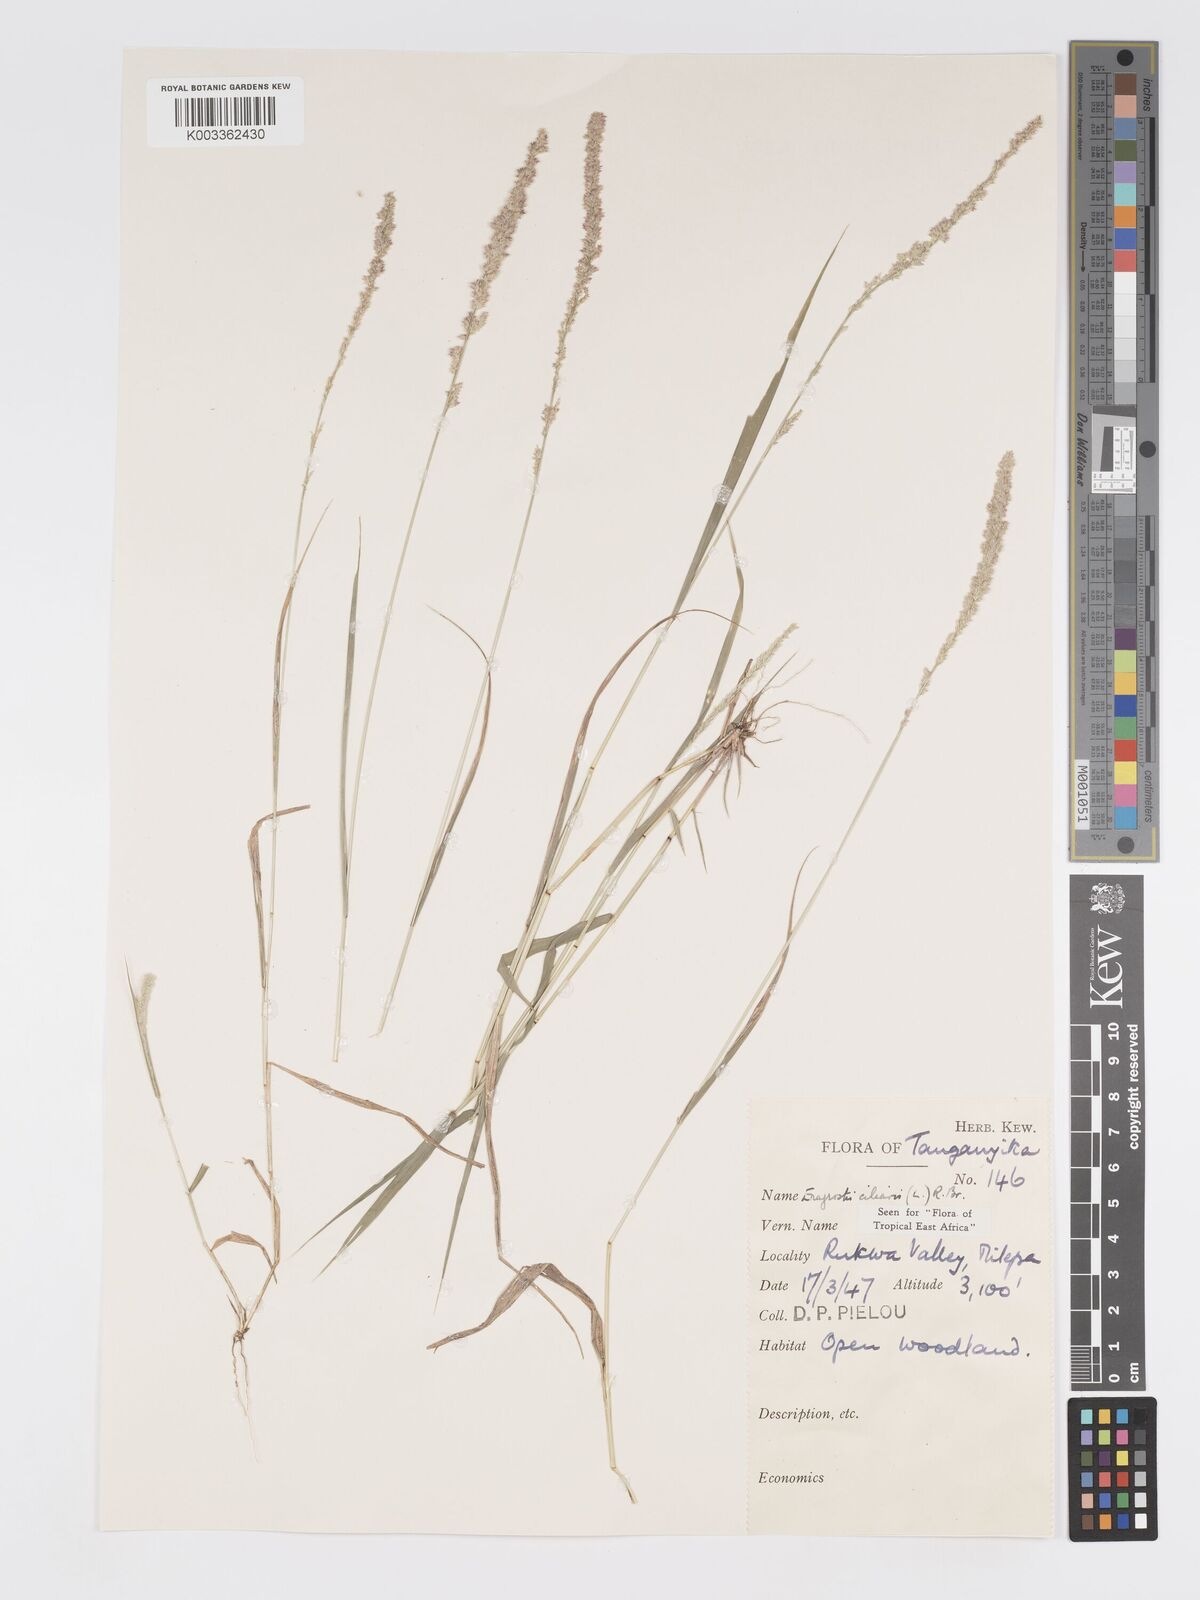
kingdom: Plantae
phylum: Tracheophyta
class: Liliopsida
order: Poales
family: Poaceae
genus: Eragrostis
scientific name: Eragrostis ciliaris
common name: Gophertail lovegrass
